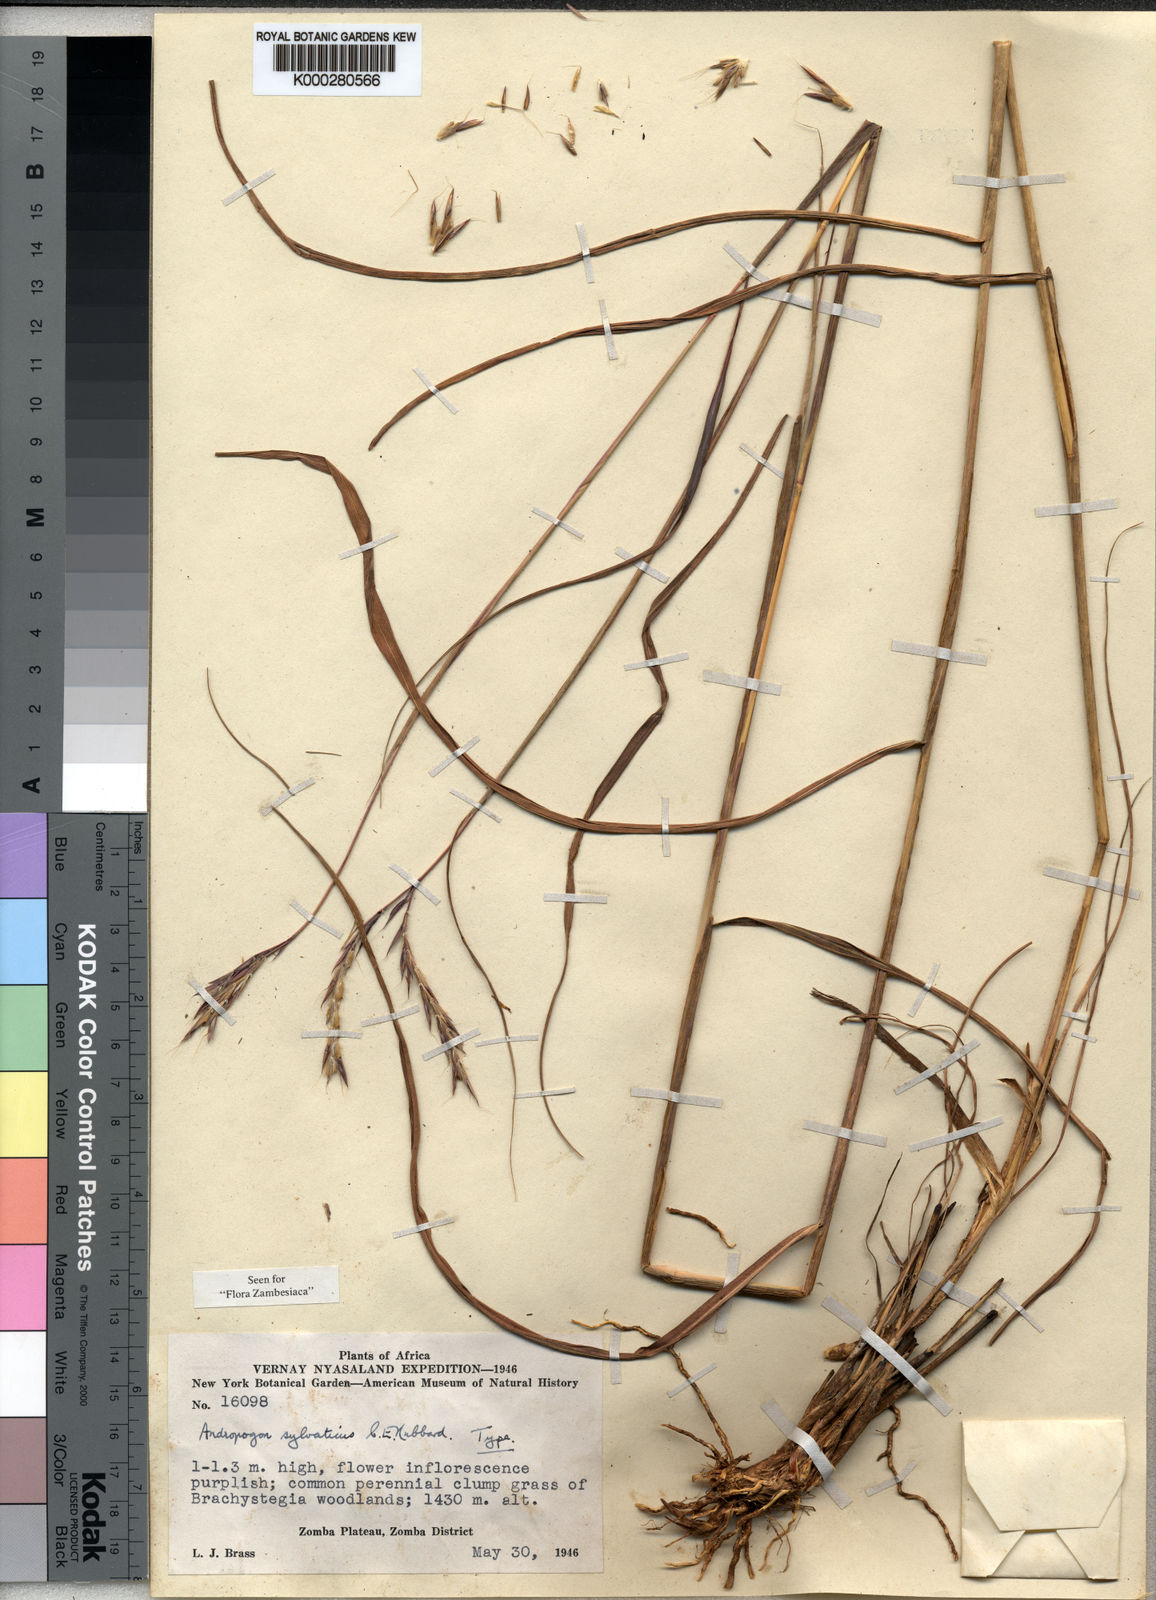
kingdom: Plantae
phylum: Tracheophyta
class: Liliopsida
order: Poales
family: Poaceae
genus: Andropogon
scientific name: Andropogon chinensis
